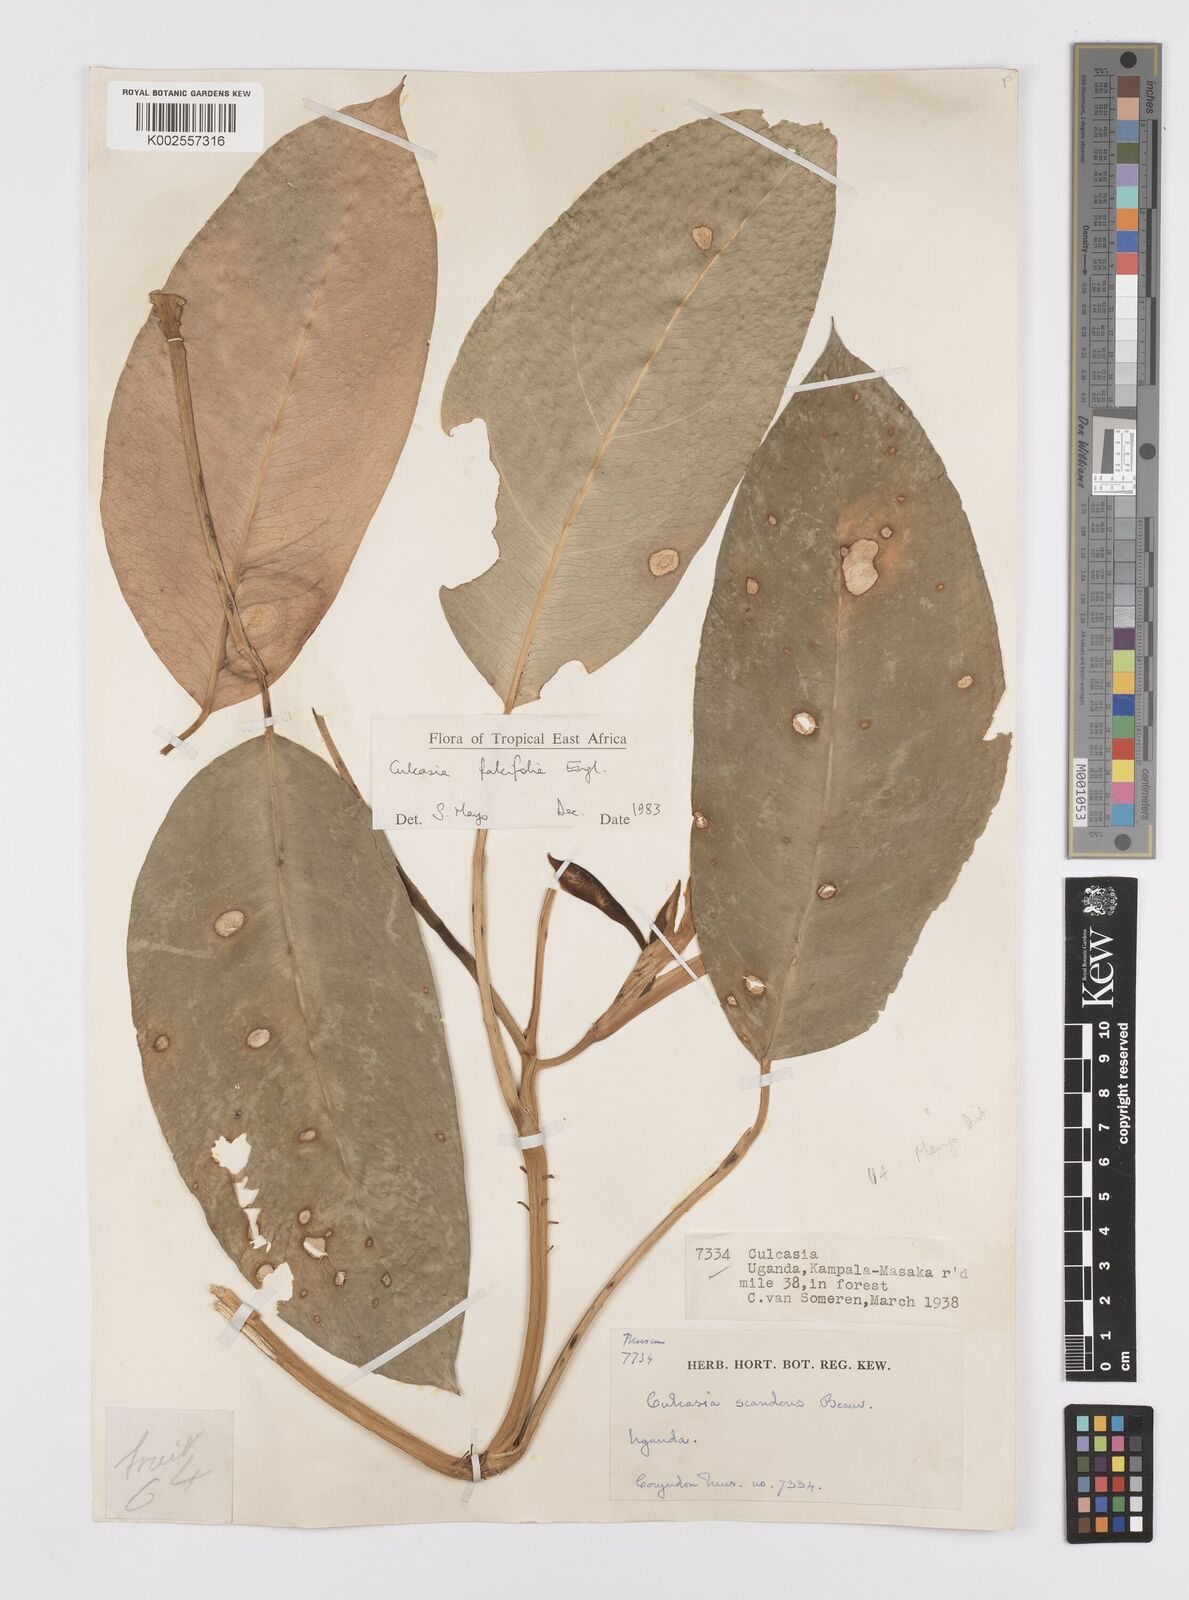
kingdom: Plantae
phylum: Tracheophyta
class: Liliopsida
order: Alismatales
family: Araceae
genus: Culcasia
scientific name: Culcasia falcifolia
